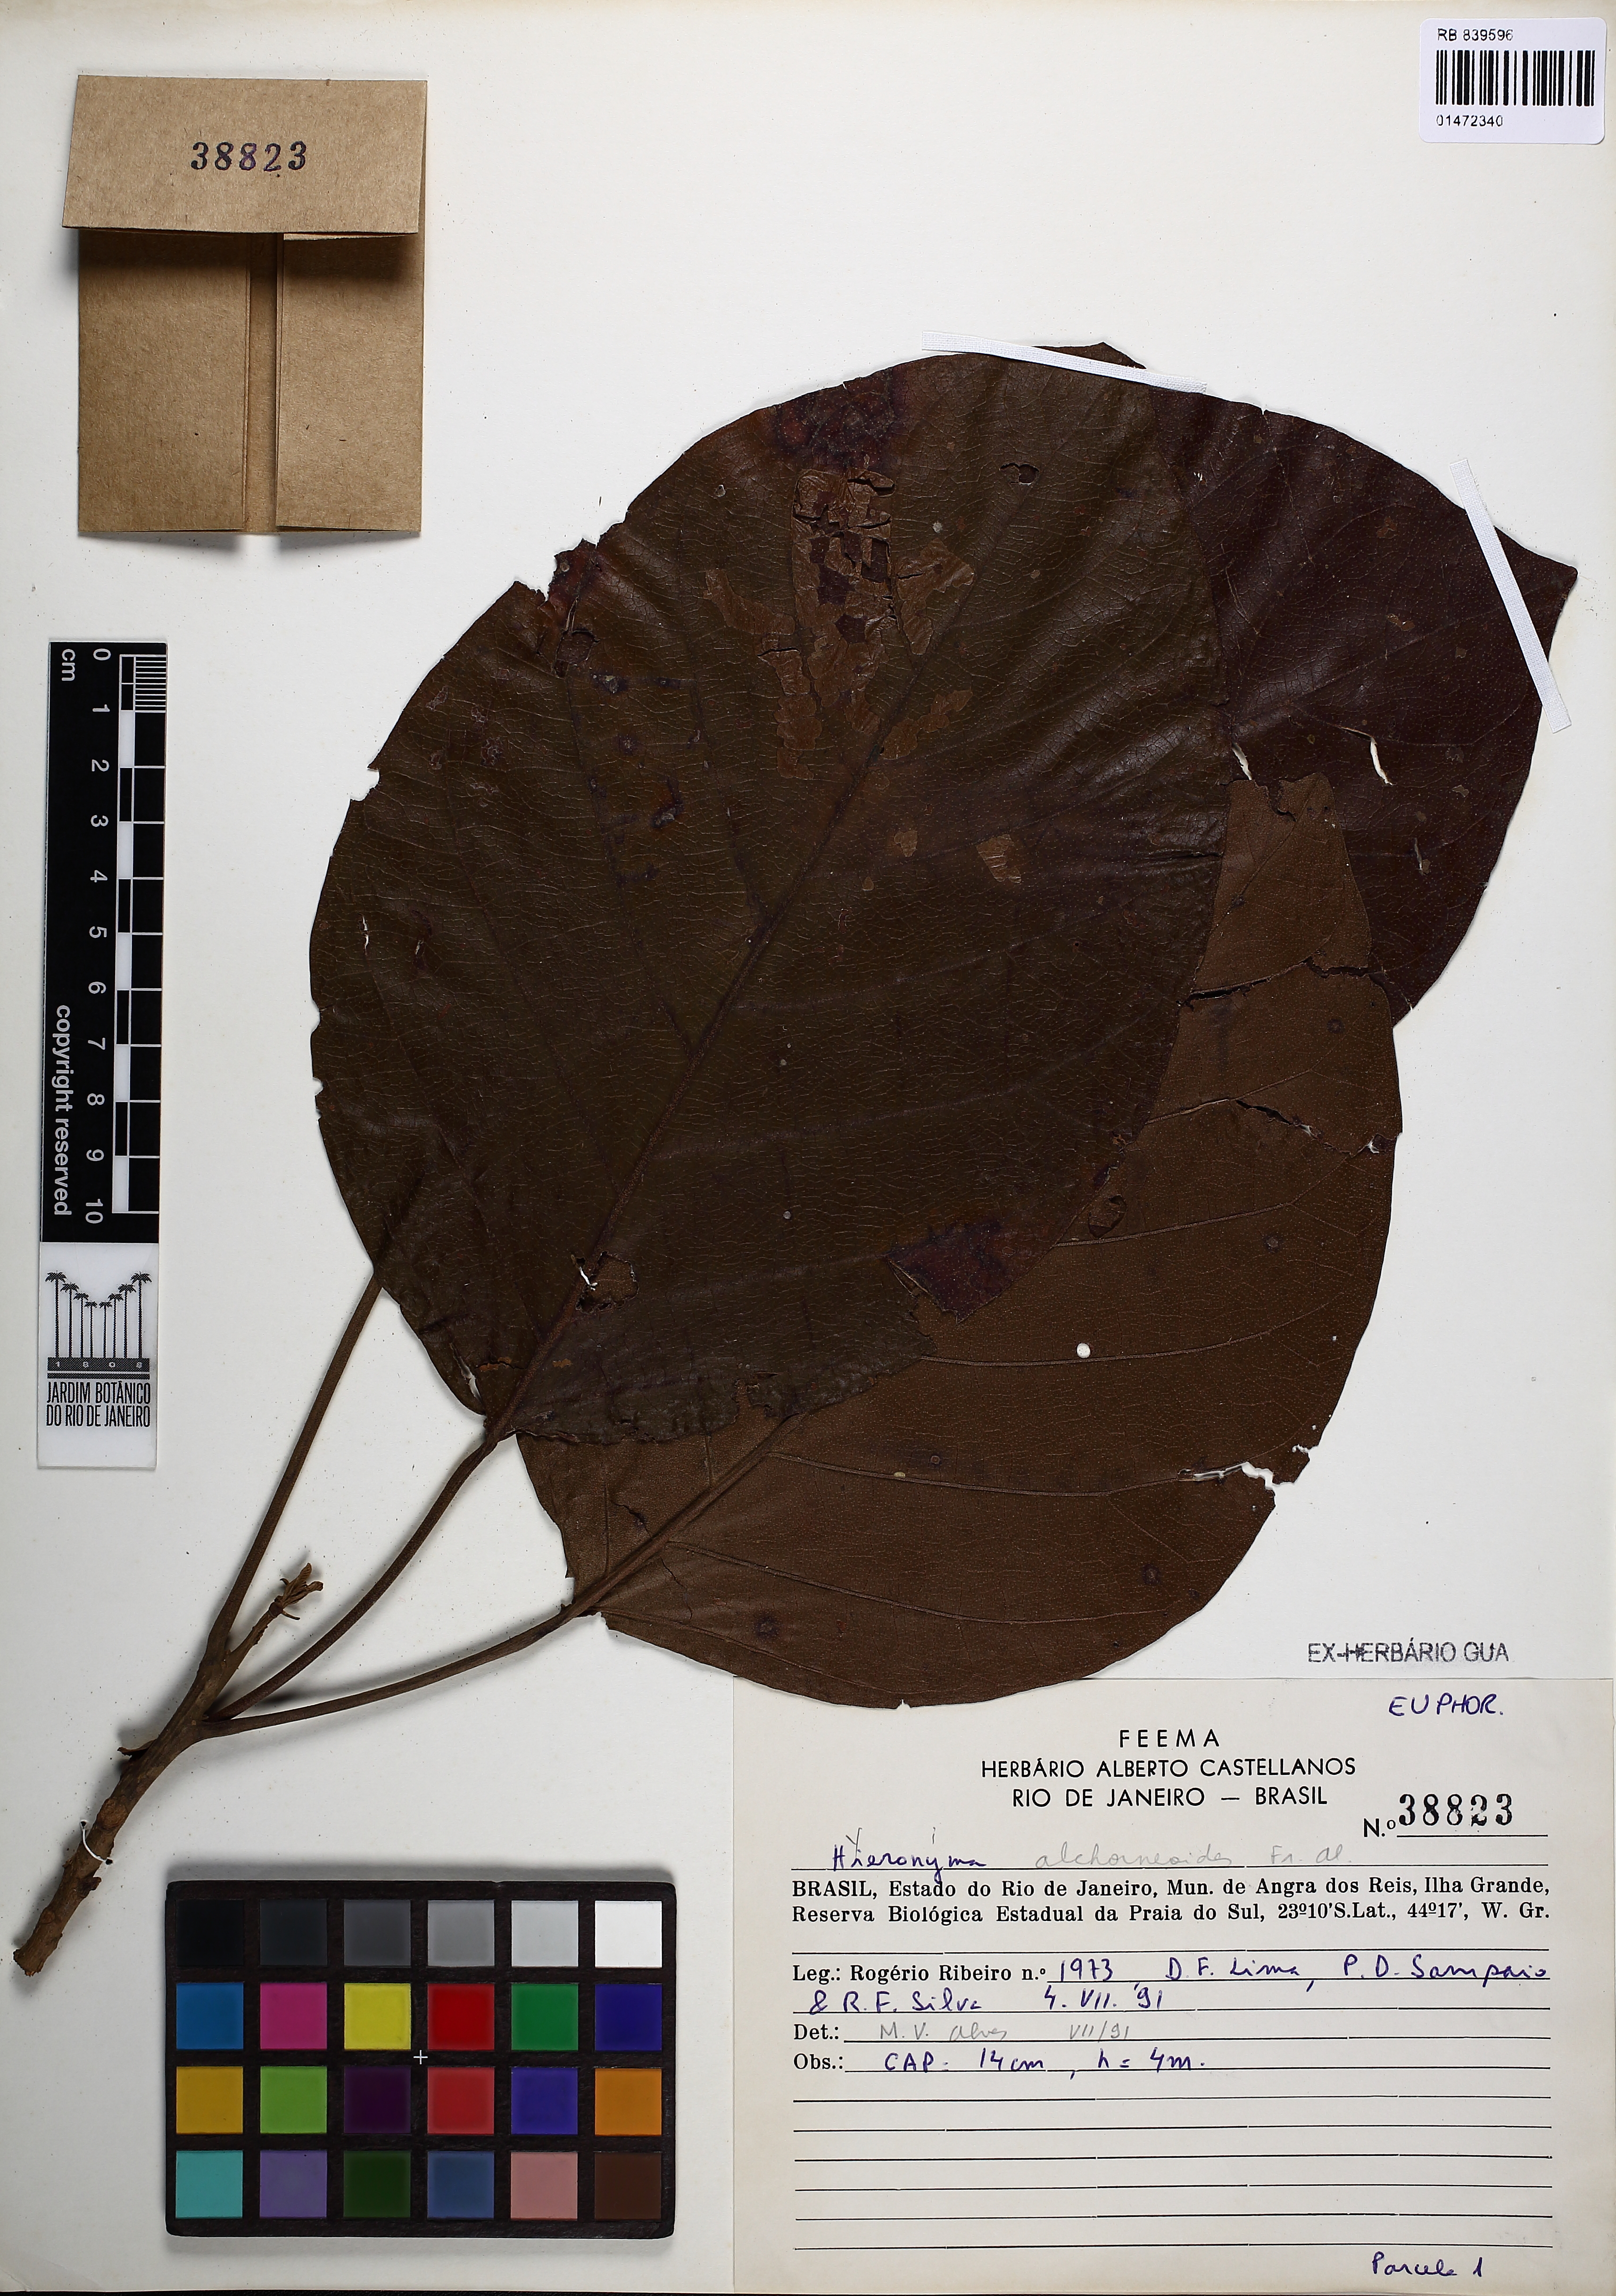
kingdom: Plantae
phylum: Tracheophyta
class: Magnoliopsida
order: Malpighiales
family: Phyllanthaceae
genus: Hieronyma
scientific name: Hieronyma alchorneoides
